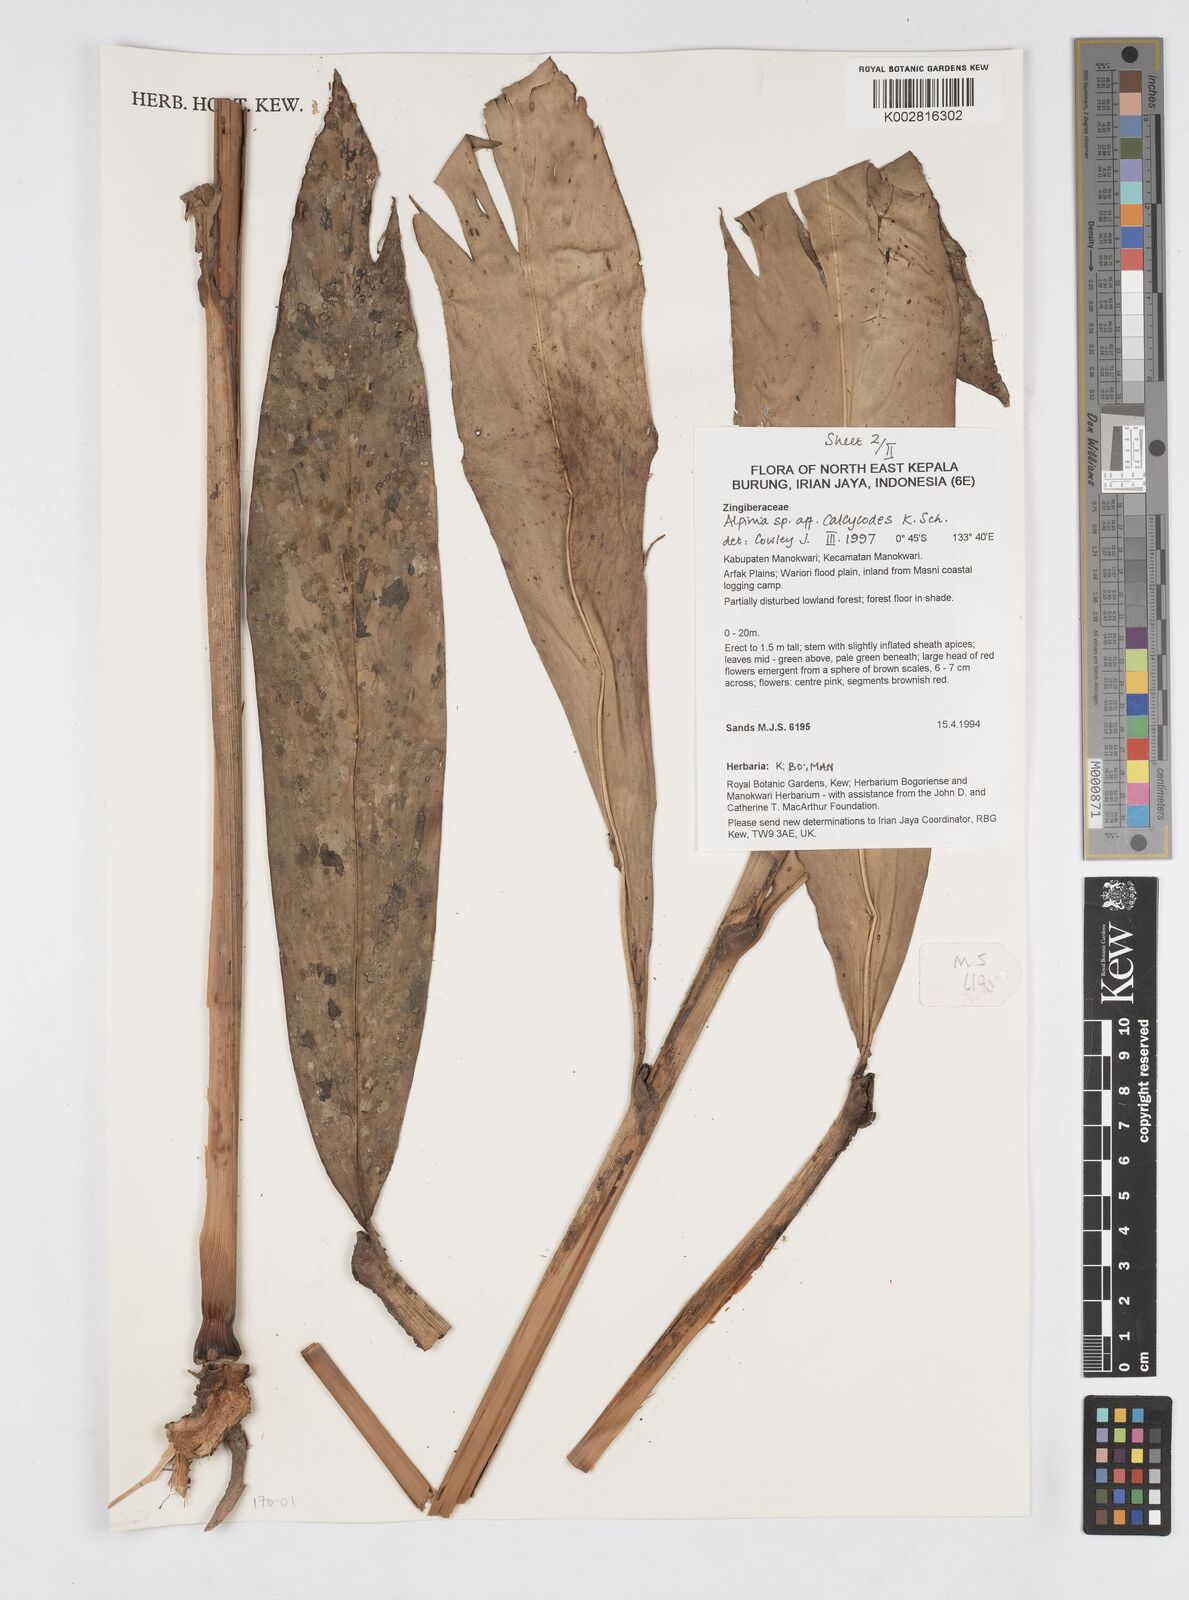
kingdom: Plantae
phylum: Tracheophyta
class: Liliopsida
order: Zingiberales
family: Zingiberaceae
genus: Alpinia
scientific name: Alpinia calycodes
